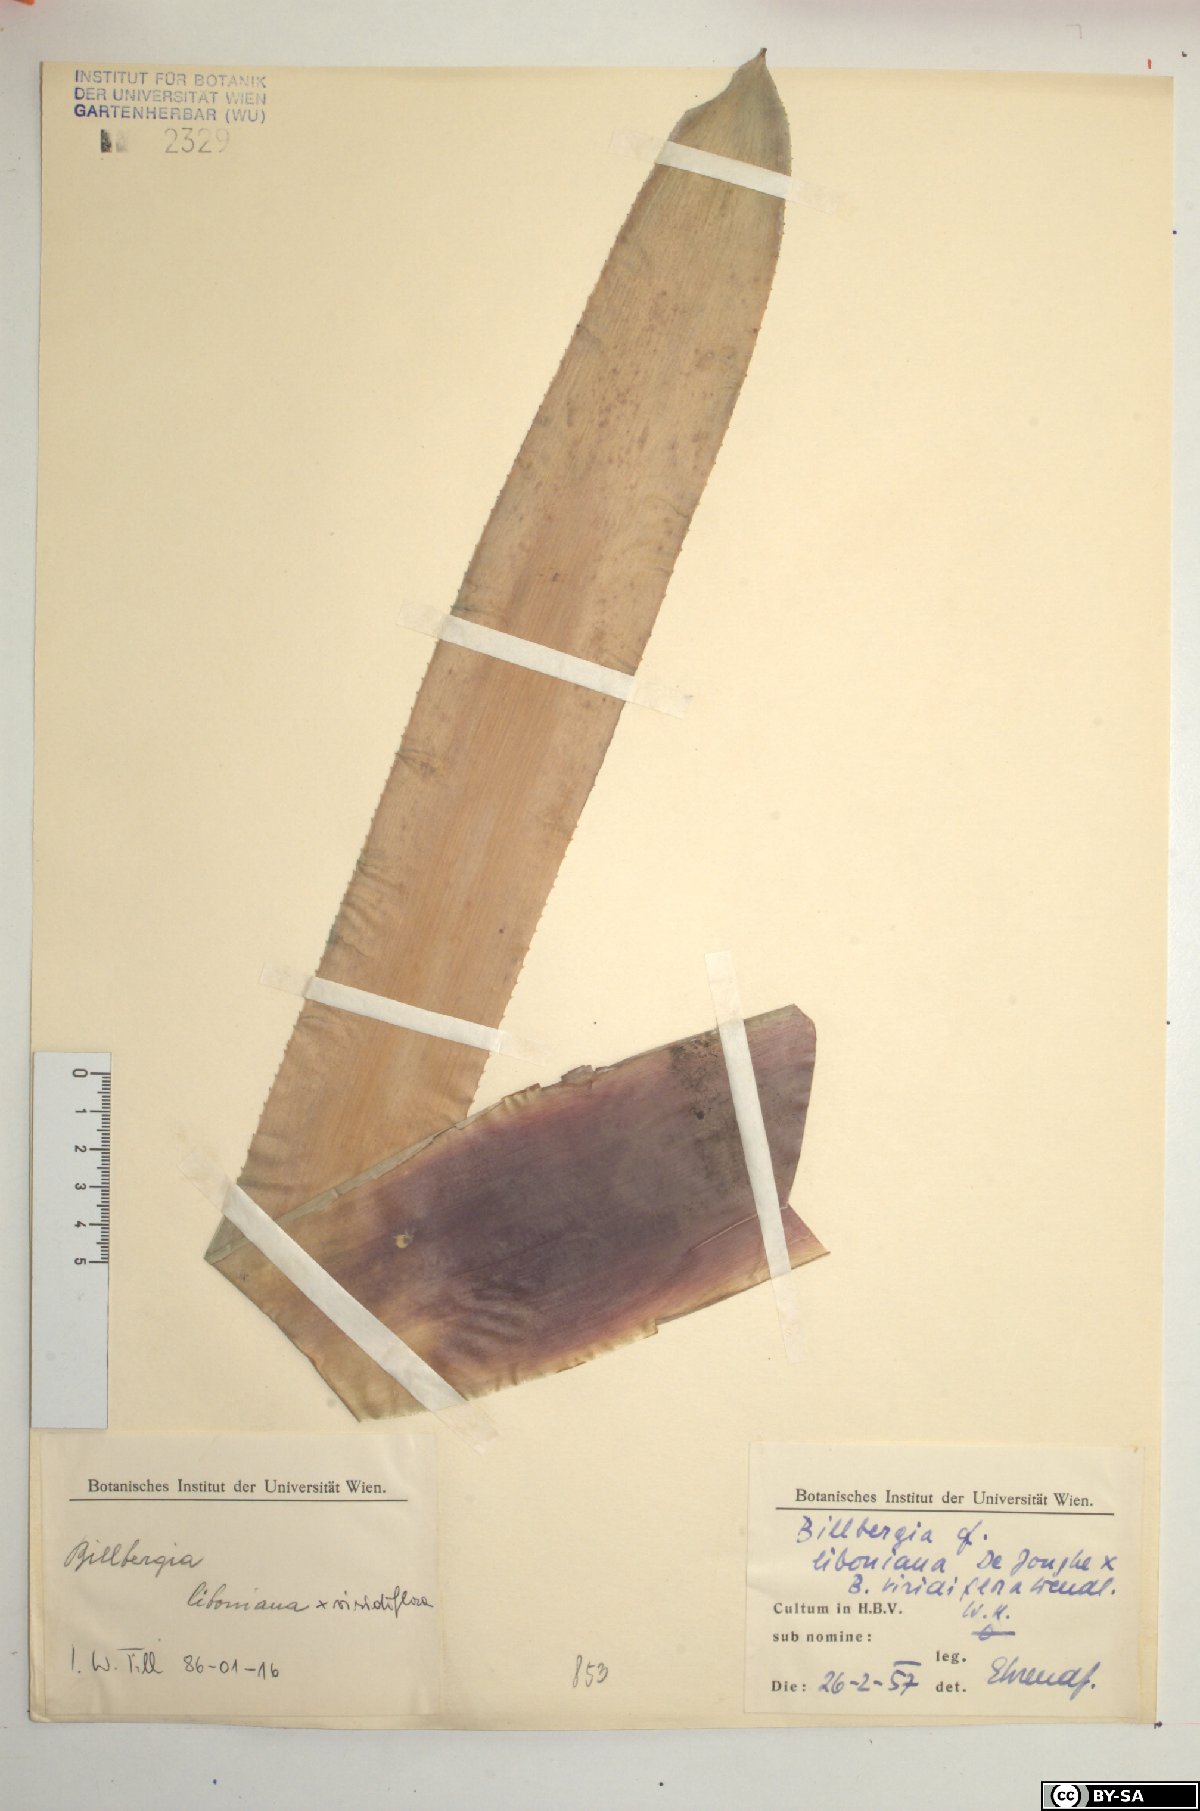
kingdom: Plantae
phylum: Tracheophyta
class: Liliopsida
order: Poales
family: Bromeliaceae
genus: Quesnelia
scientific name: Quesnelia liboniana
